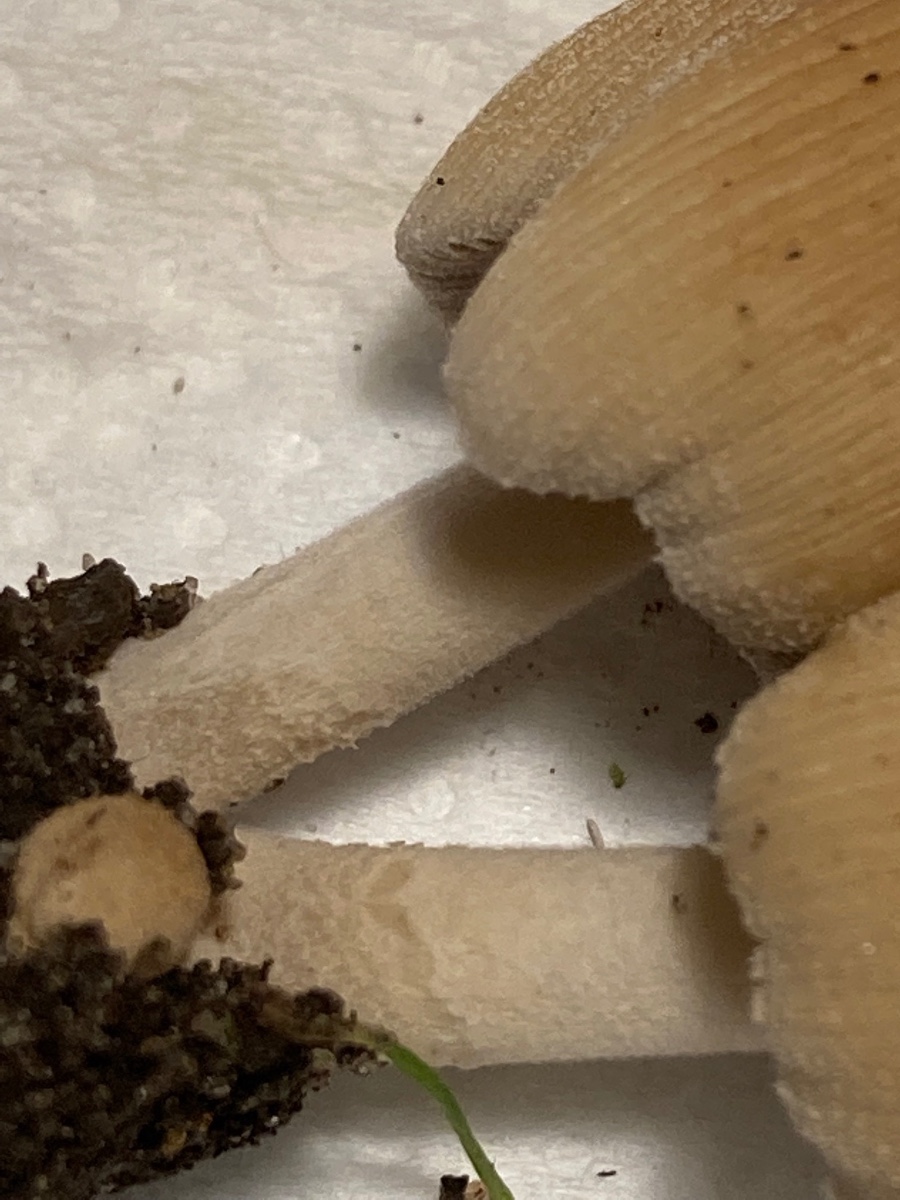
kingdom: Fungi
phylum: Basidiomycota
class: Agaricomycetes
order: Agaricales
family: Psathyrellaceae
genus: Coprinellus
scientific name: Coprinellus micaceus
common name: glimmer-blækhat
